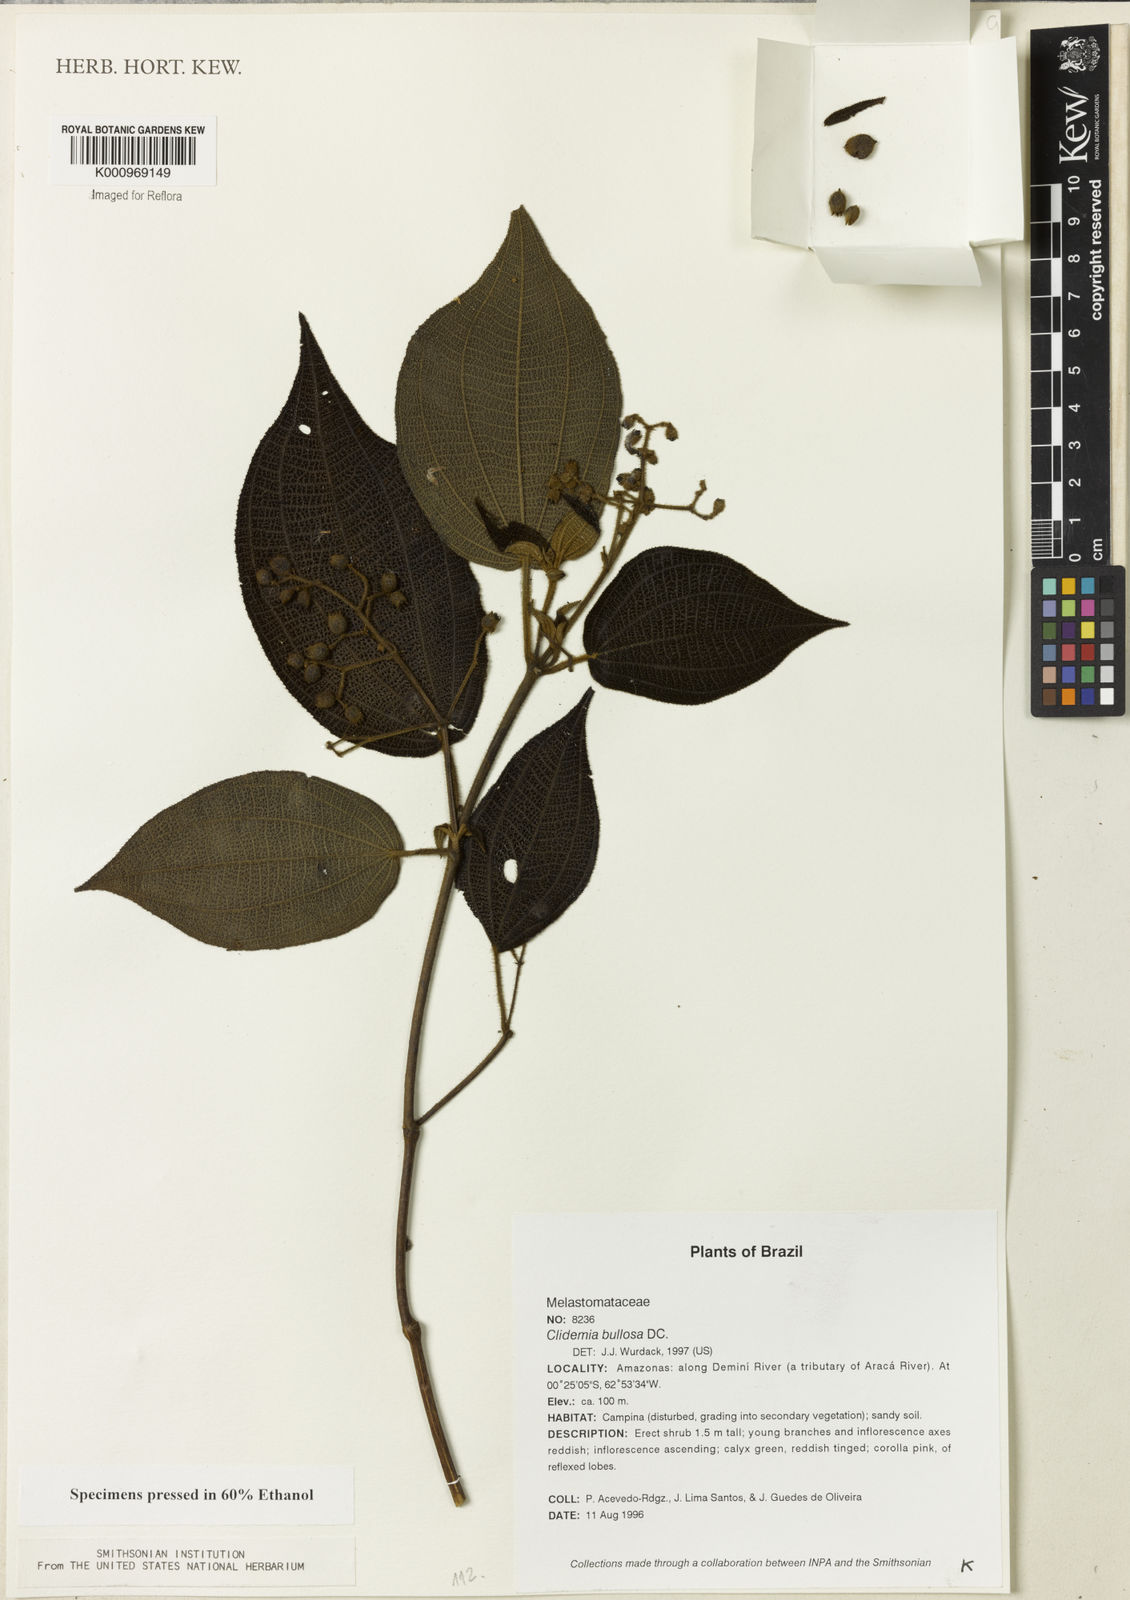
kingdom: Plantae
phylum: Tracheophyta
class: Magnoliopsida
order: Myrtales
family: Melastomataceae
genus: Miconia
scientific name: Miconia biserrata
